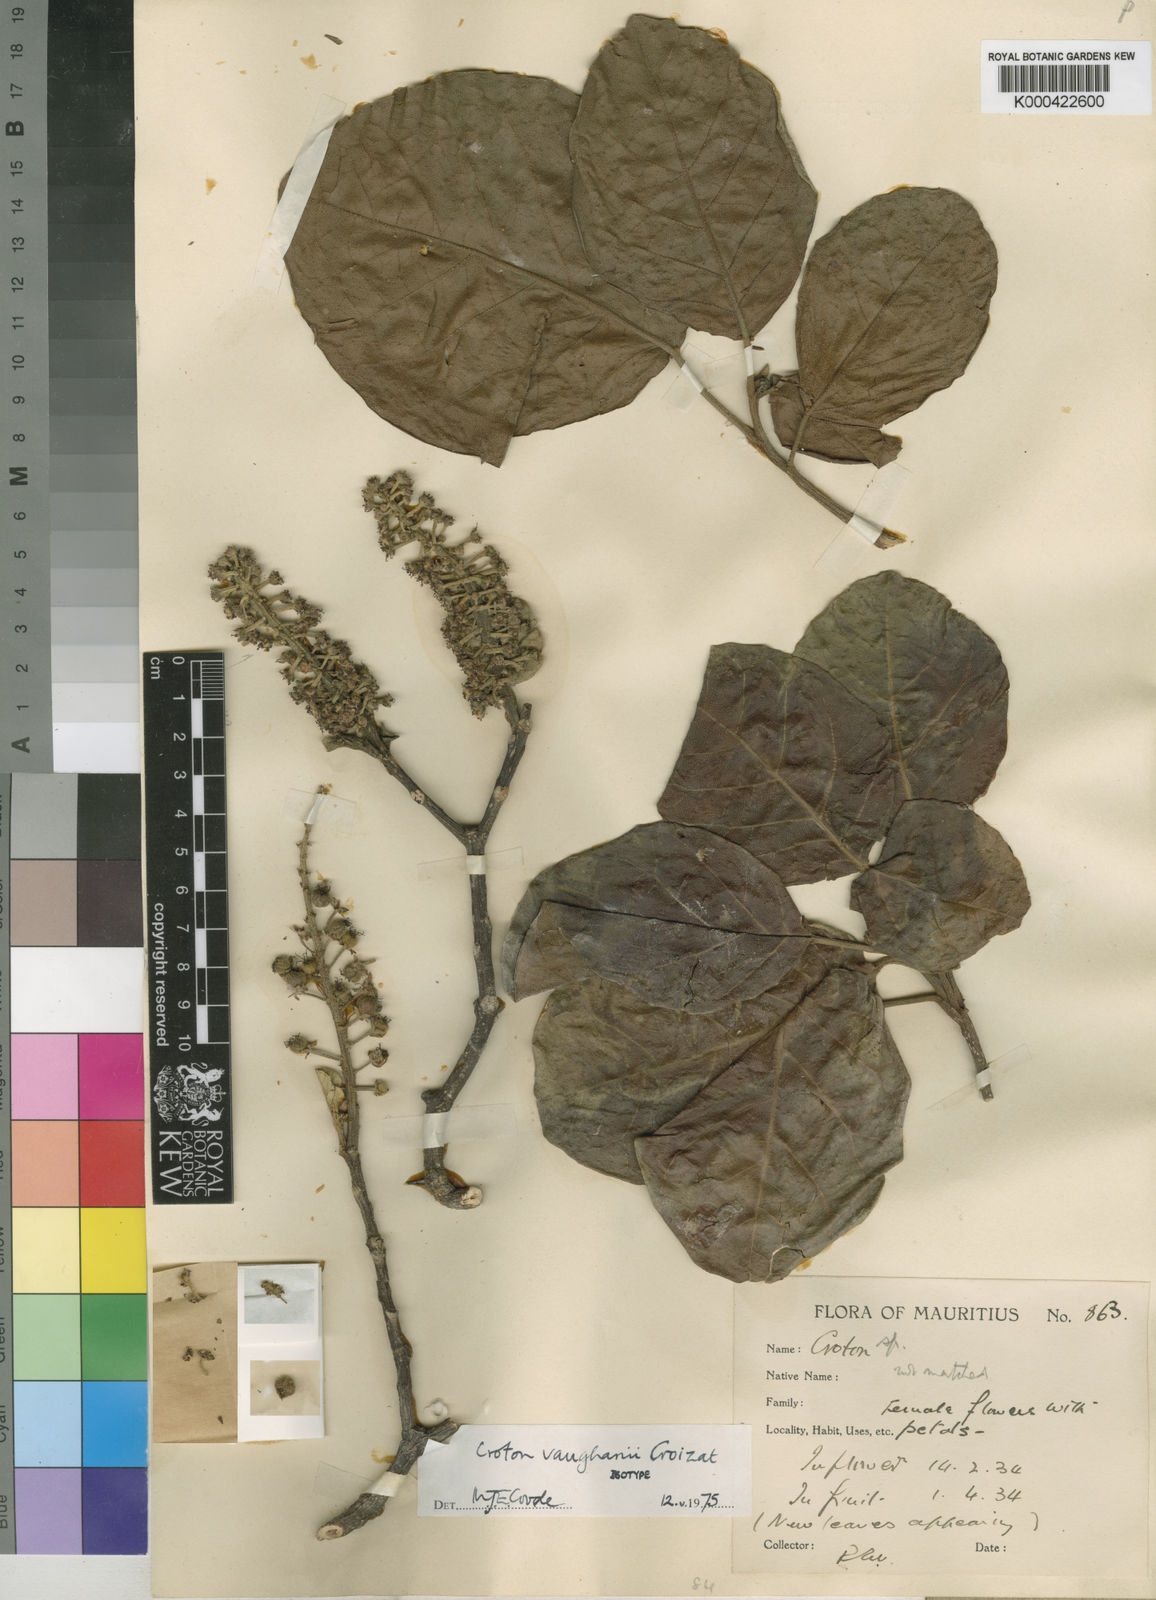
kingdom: Plantae
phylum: Tracheophyta
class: Magnoliopsida
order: Malpighiales
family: Euphorbiaceae
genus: Croton
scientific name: Croton vaughanii
